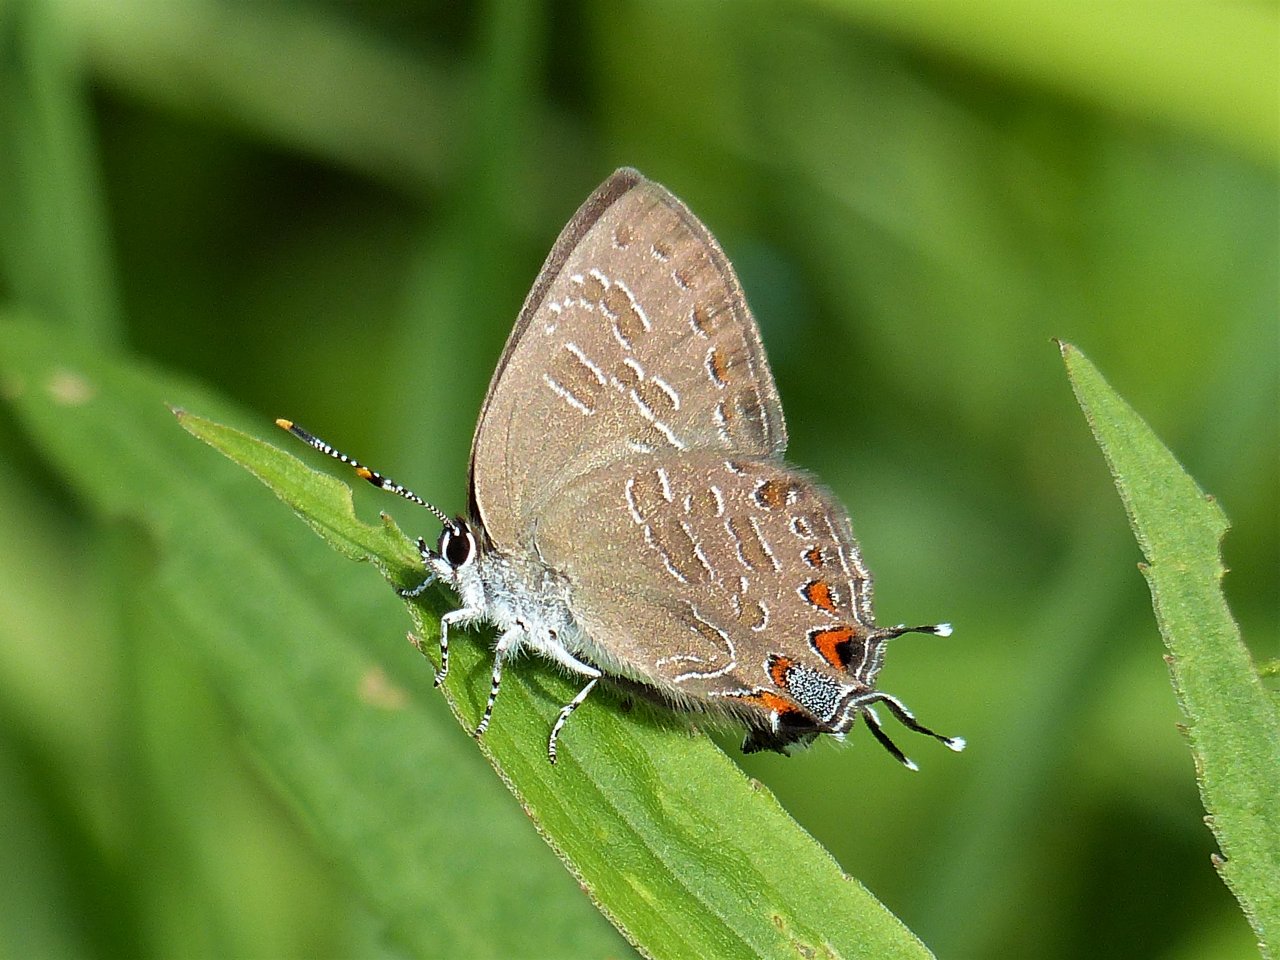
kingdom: Animalia
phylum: Arthropoda
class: Insecta
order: Lepidoptera
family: Lycaenidae
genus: Satyrium
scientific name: Satyrium liparops
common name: Striped Hairstreak
